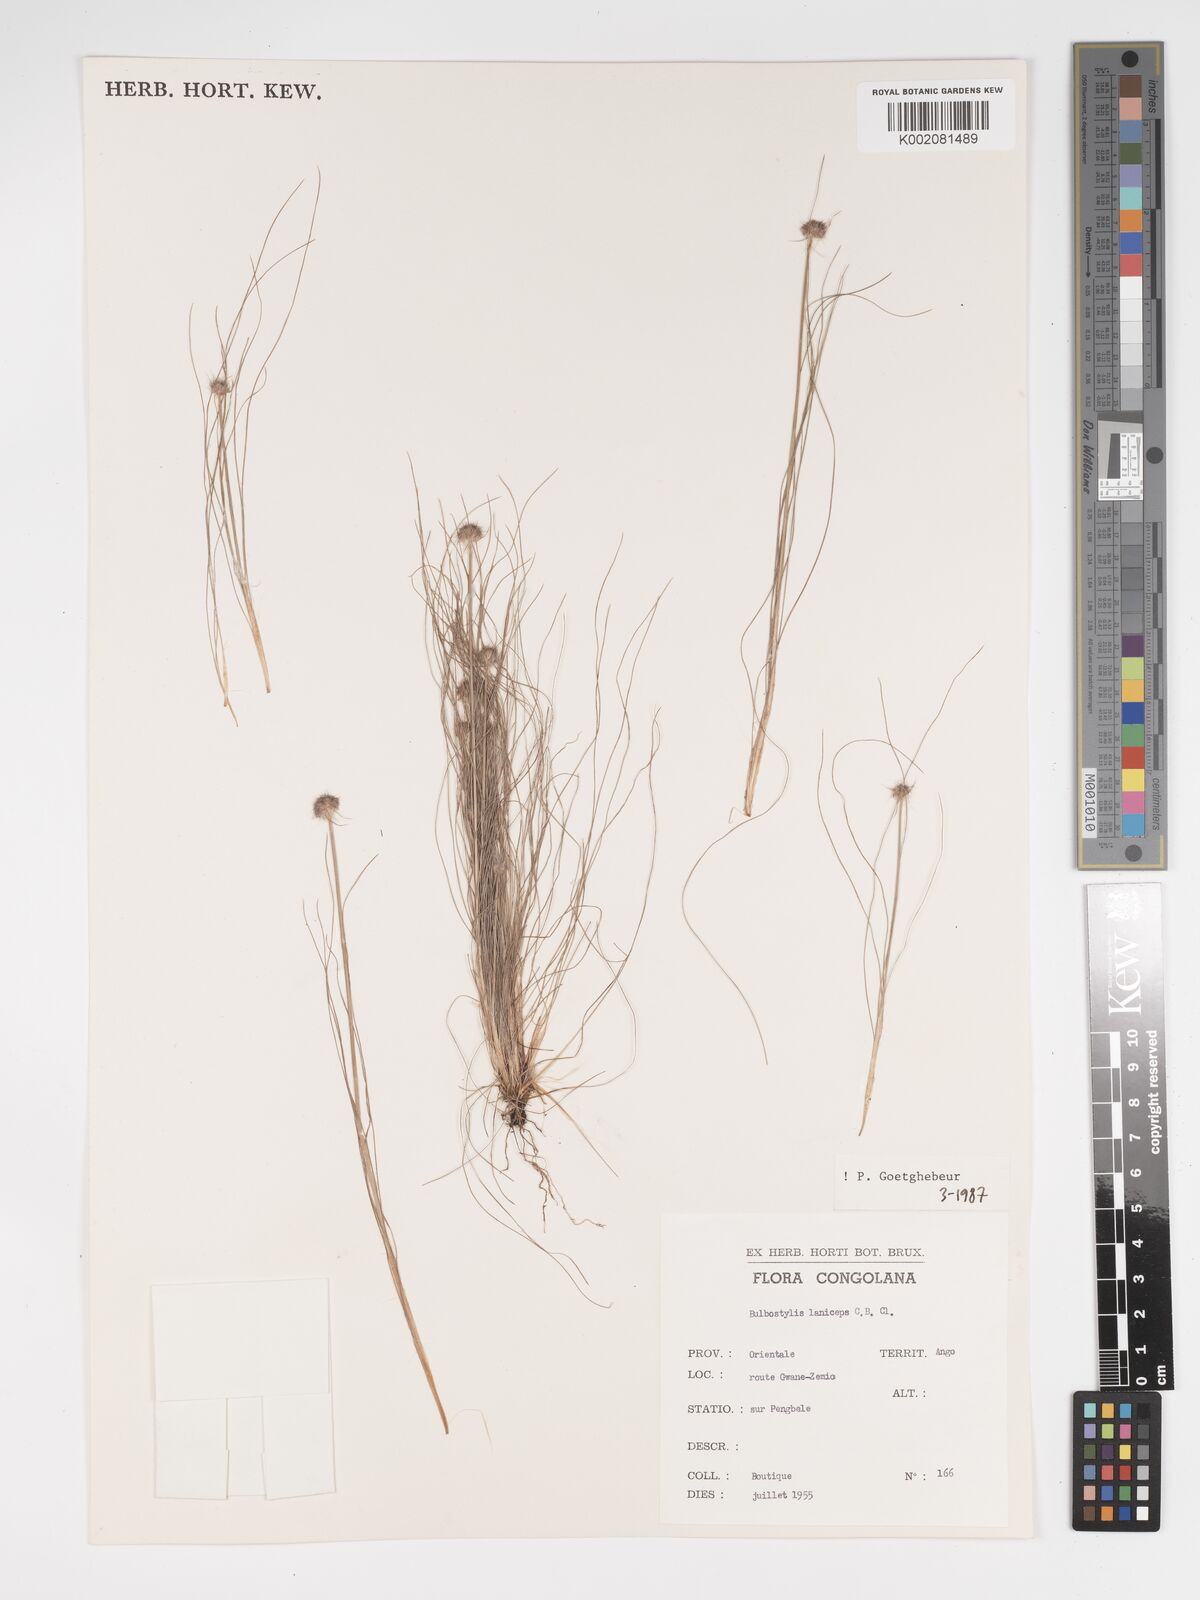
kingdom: Plantae
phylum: Tracheophyta
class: Liliopsida
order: Poales
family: Cyperaceae
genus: Bulbostylis
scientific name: Bulbostylis laniceps
